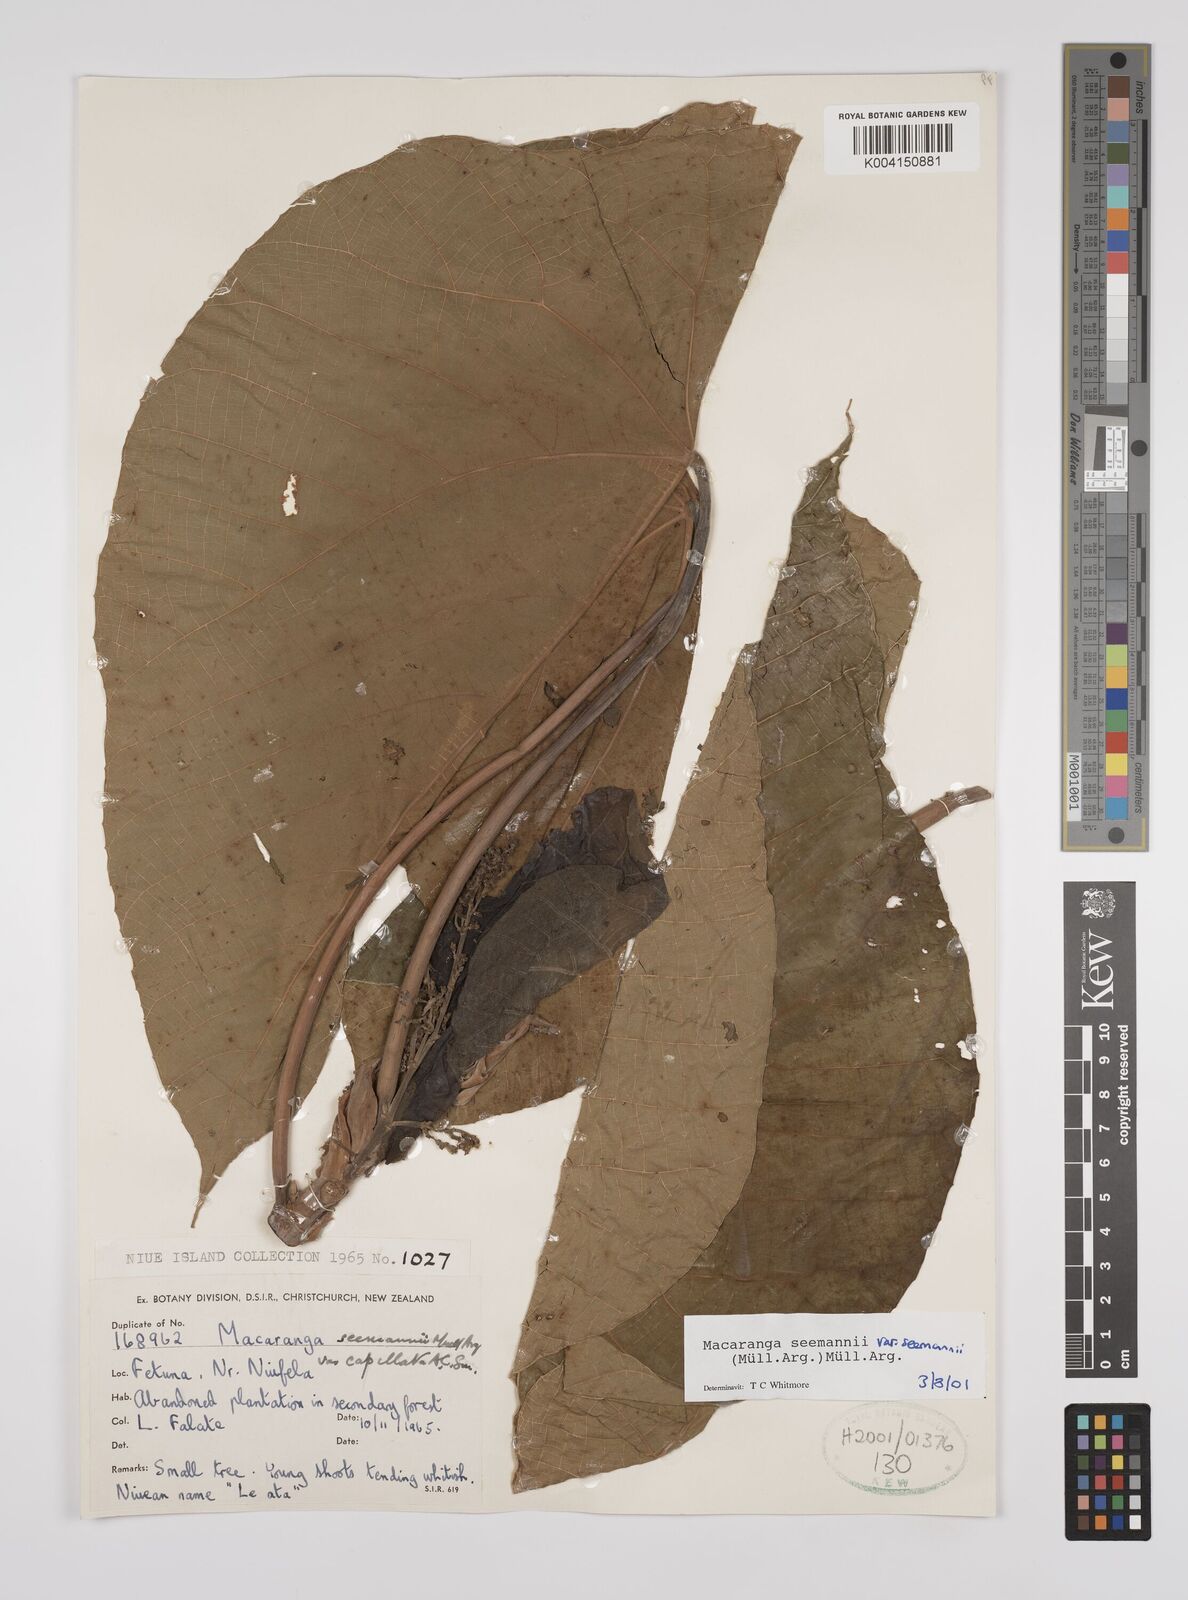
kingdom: Plantae
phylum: Tracheophyta
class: Magnoliopsida
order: Malpighiales
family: Euphorbiaceae
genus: Macaranga
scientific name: Macaranga seemannii
